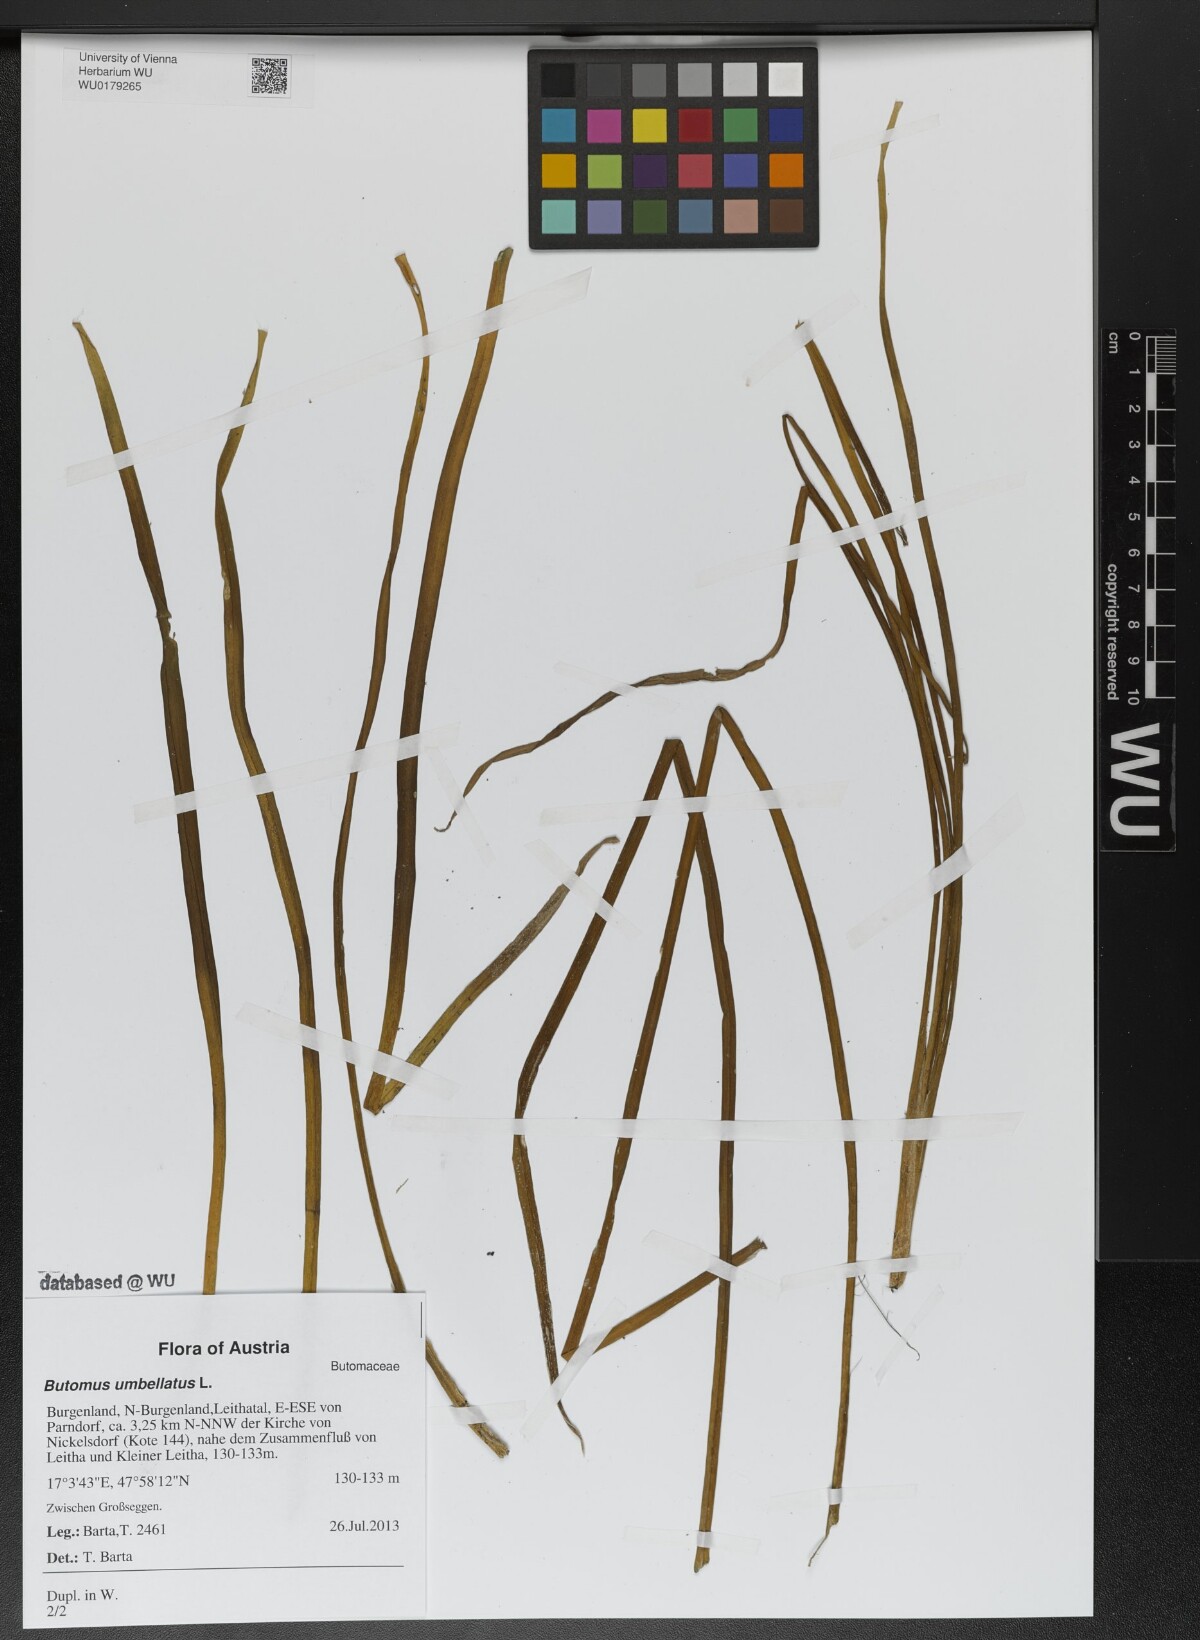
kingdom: Plantae
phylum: Tracheophyta
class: Liliopsida
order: Alismatales
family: Butomaceae
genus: Butomus
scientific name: Butomus umbellatus
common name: Flowering-rush
